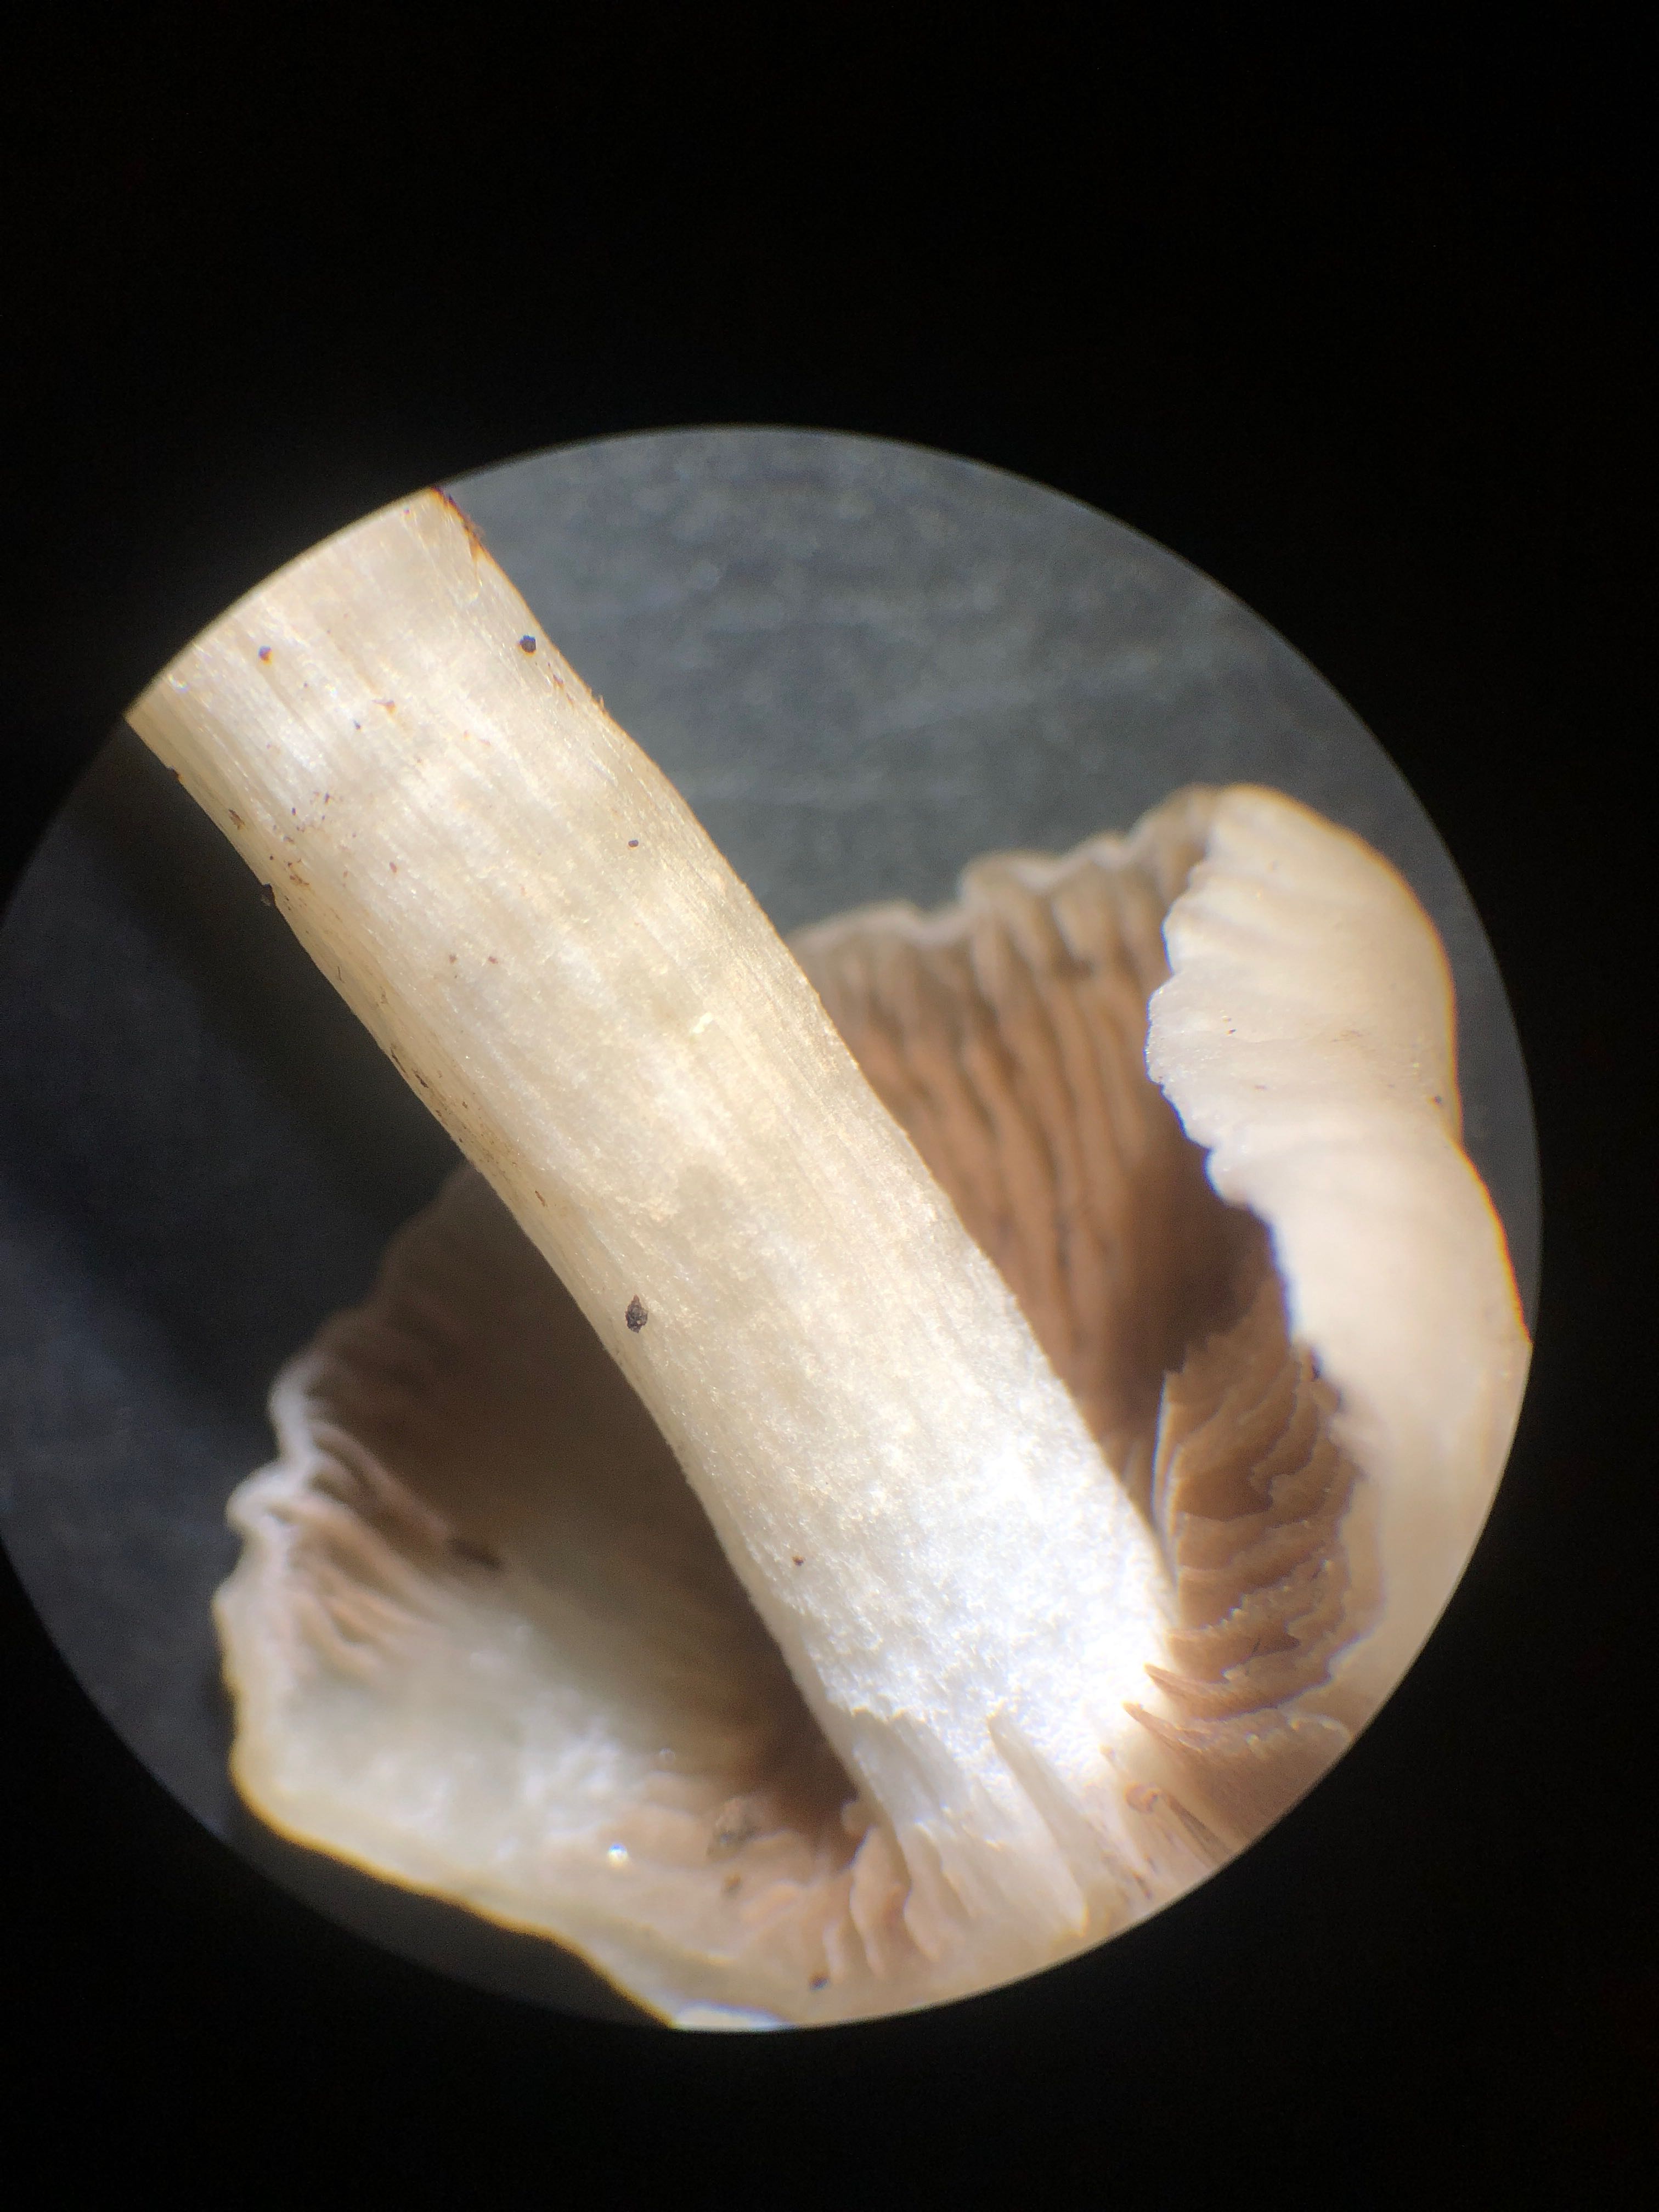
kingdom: Fungi
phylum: Basidiomycota
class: Agaricomycetes
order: Agaricales
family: Psathyrellaceae
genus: Homophron
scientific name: Homophron cernuum
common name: hvidlig mørkhat
